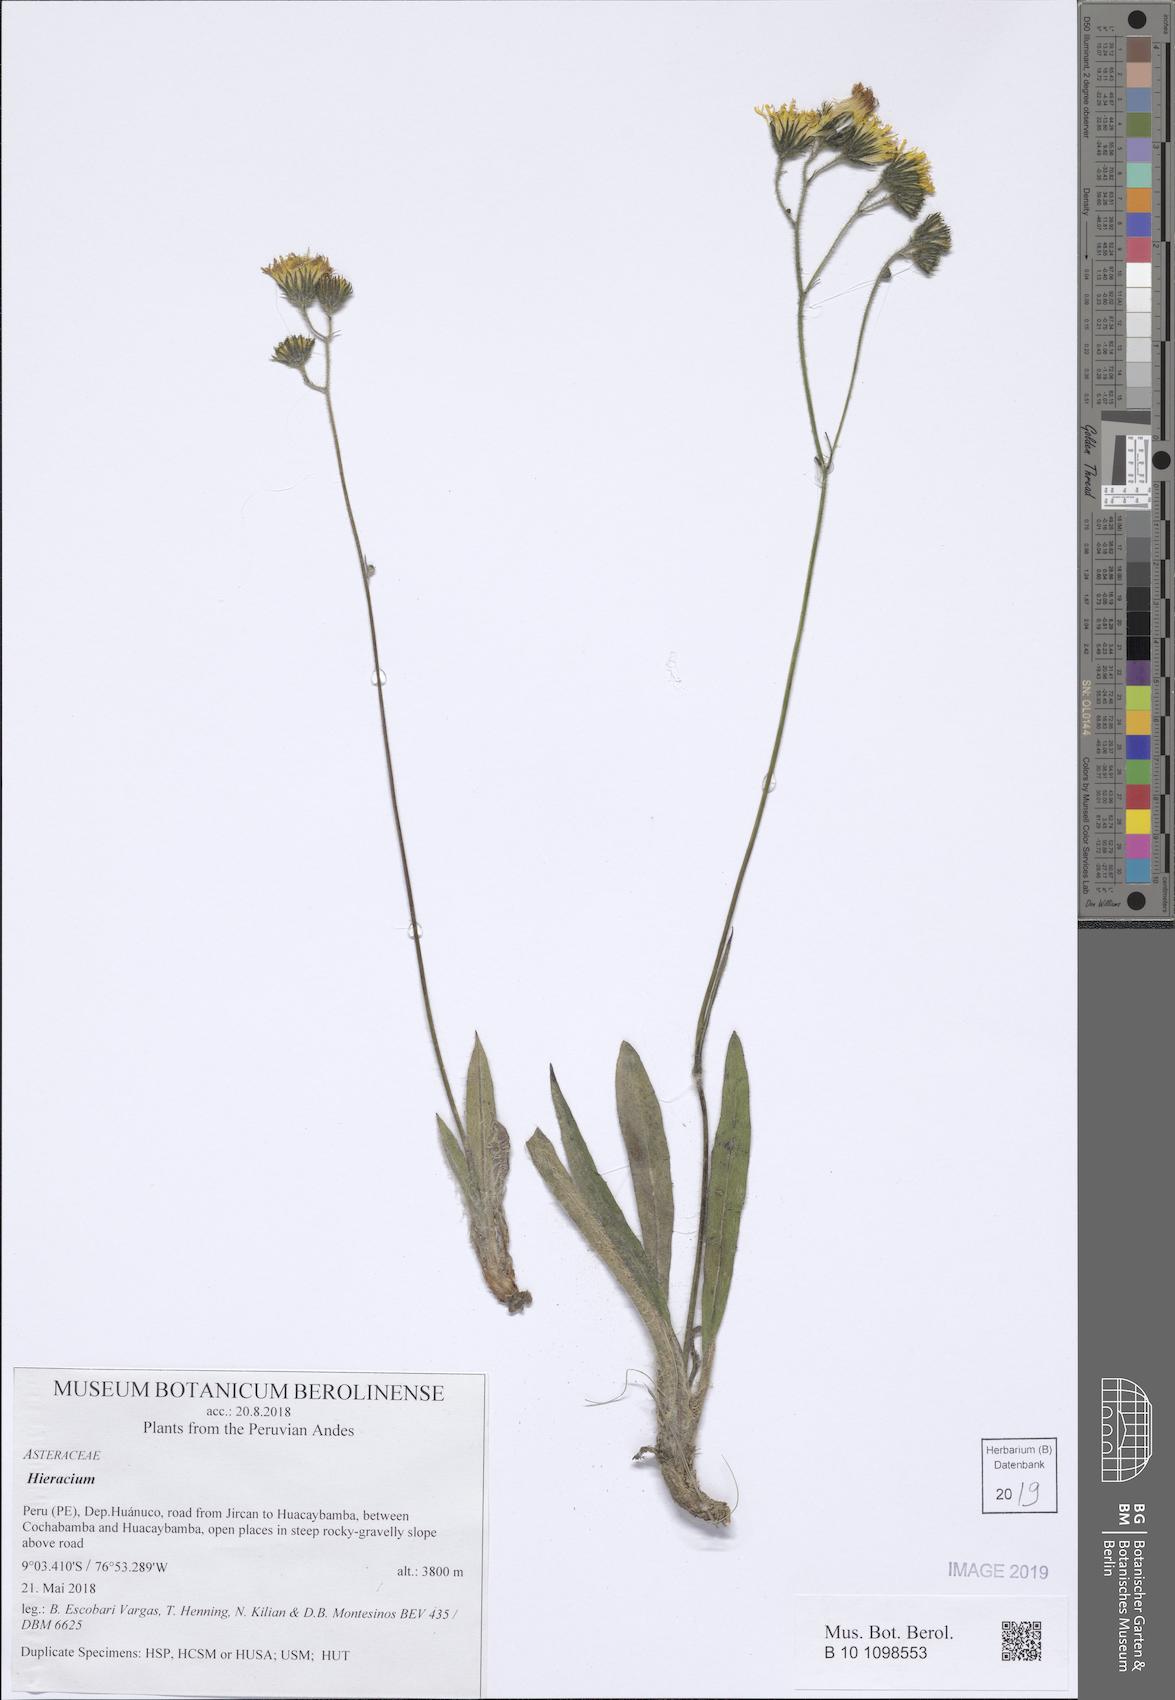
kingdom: Plantae
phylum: Tracheophyta
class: Magnoliopsida
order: Asterales
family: Asteraceae
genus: Hieracium
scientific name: Hieracium
